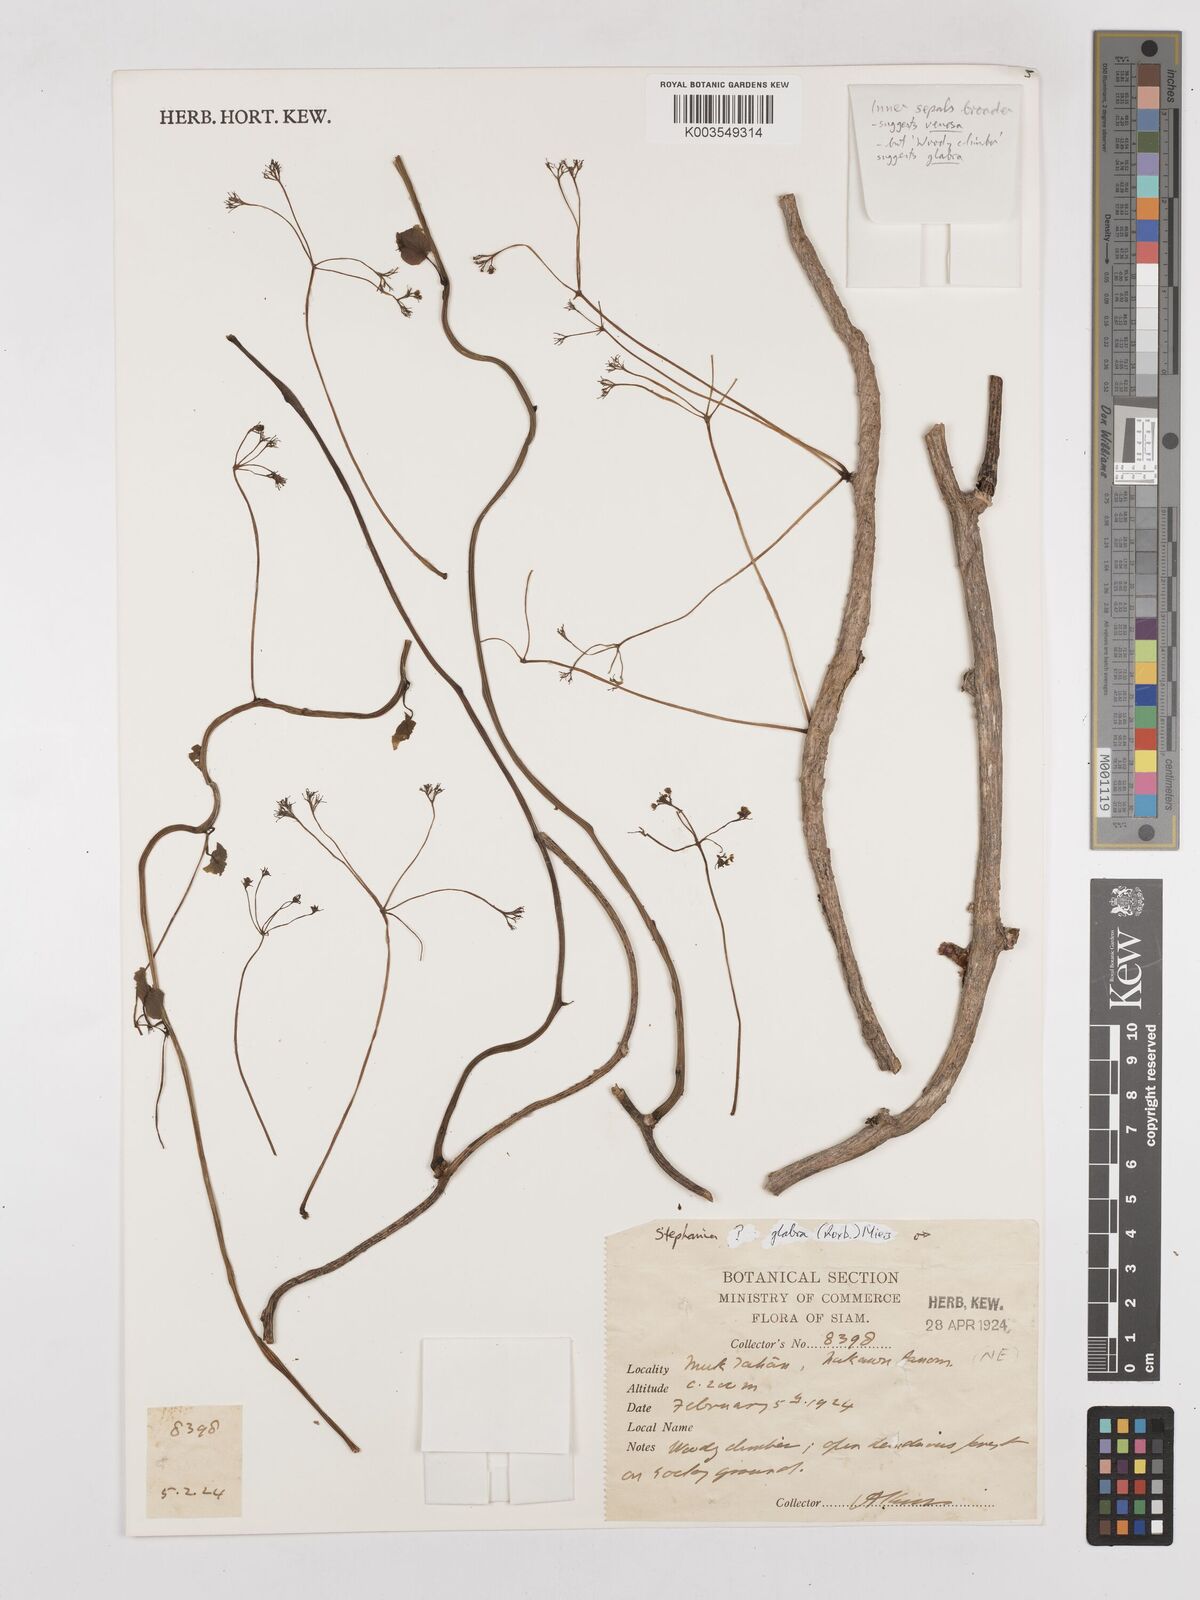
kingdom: Plantae
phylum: Tracheophyta
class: Magnoliopsida
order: Ranunculales
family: Menispermaceae
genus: Stephania
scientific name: Stephania rotunda
